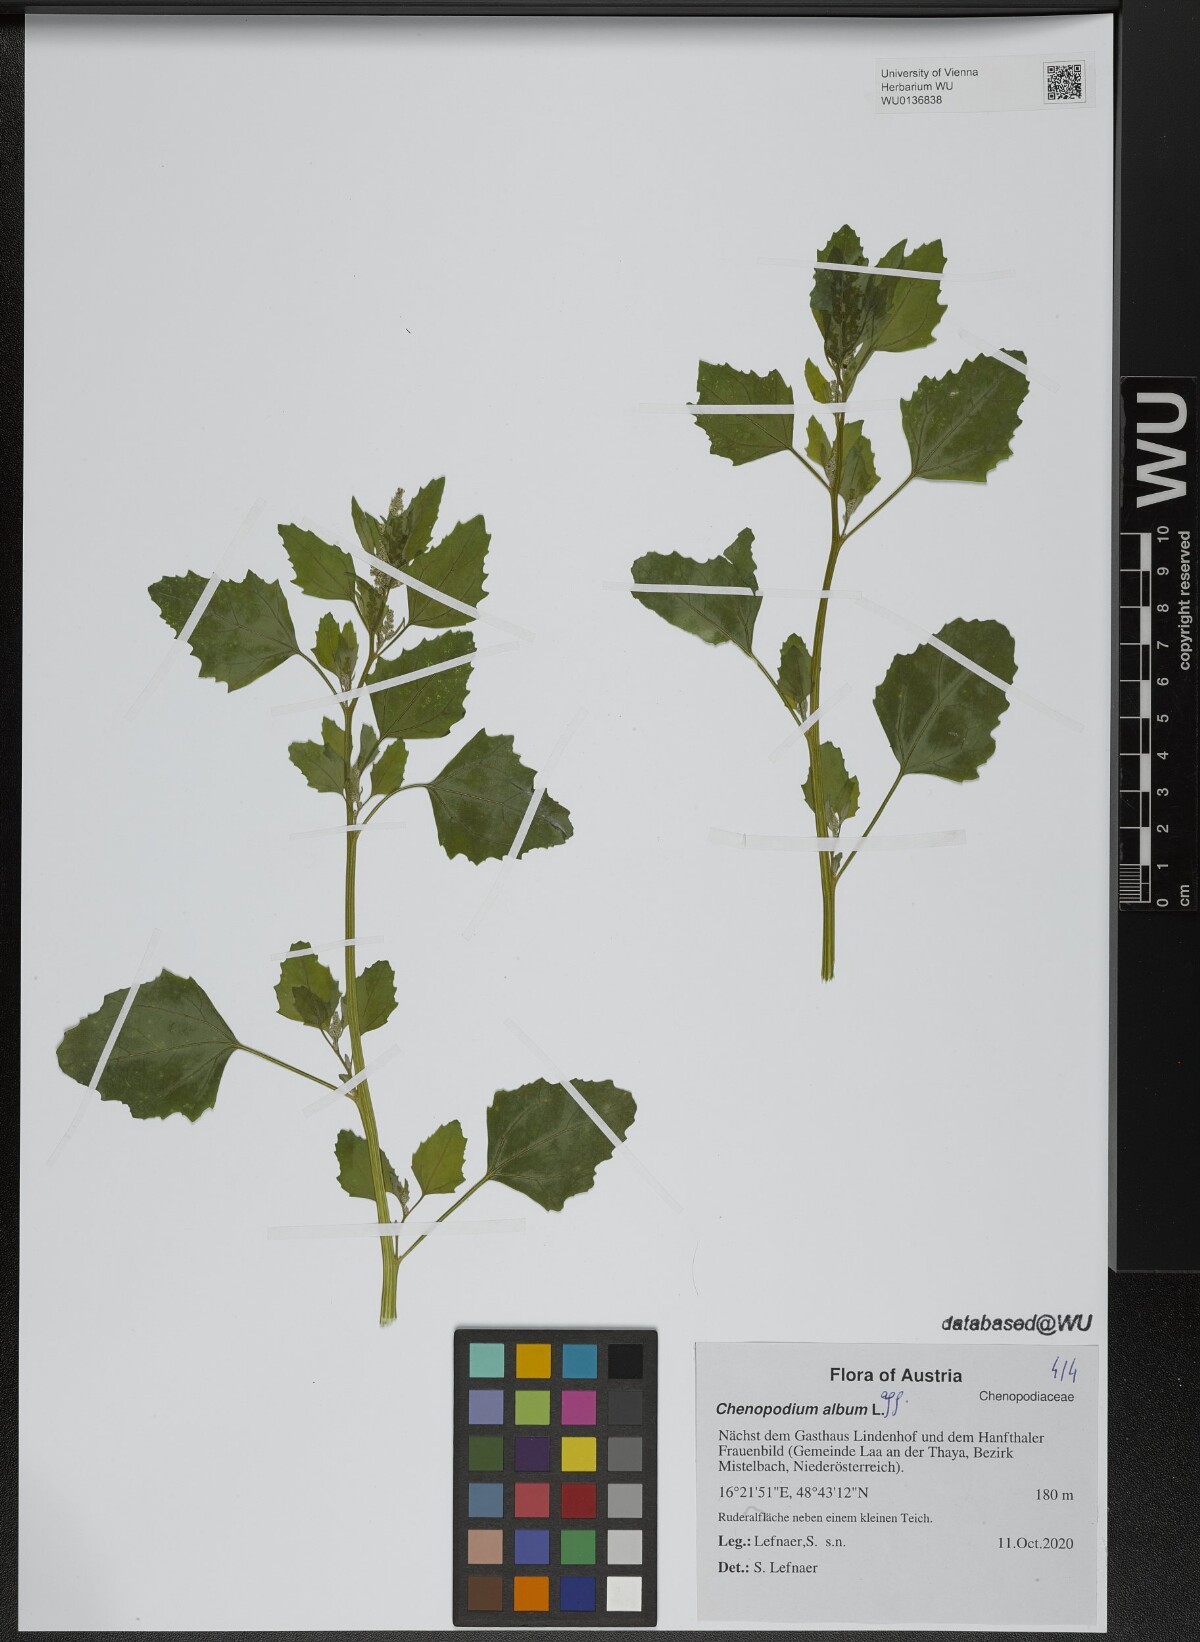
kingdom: Plantae
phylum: Tracheophyta
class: Magnoliopsida
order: Caryophyllales
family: Amaranthaceae
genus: Chenopodium
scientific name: Chenopodium album
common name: Fat-hen
